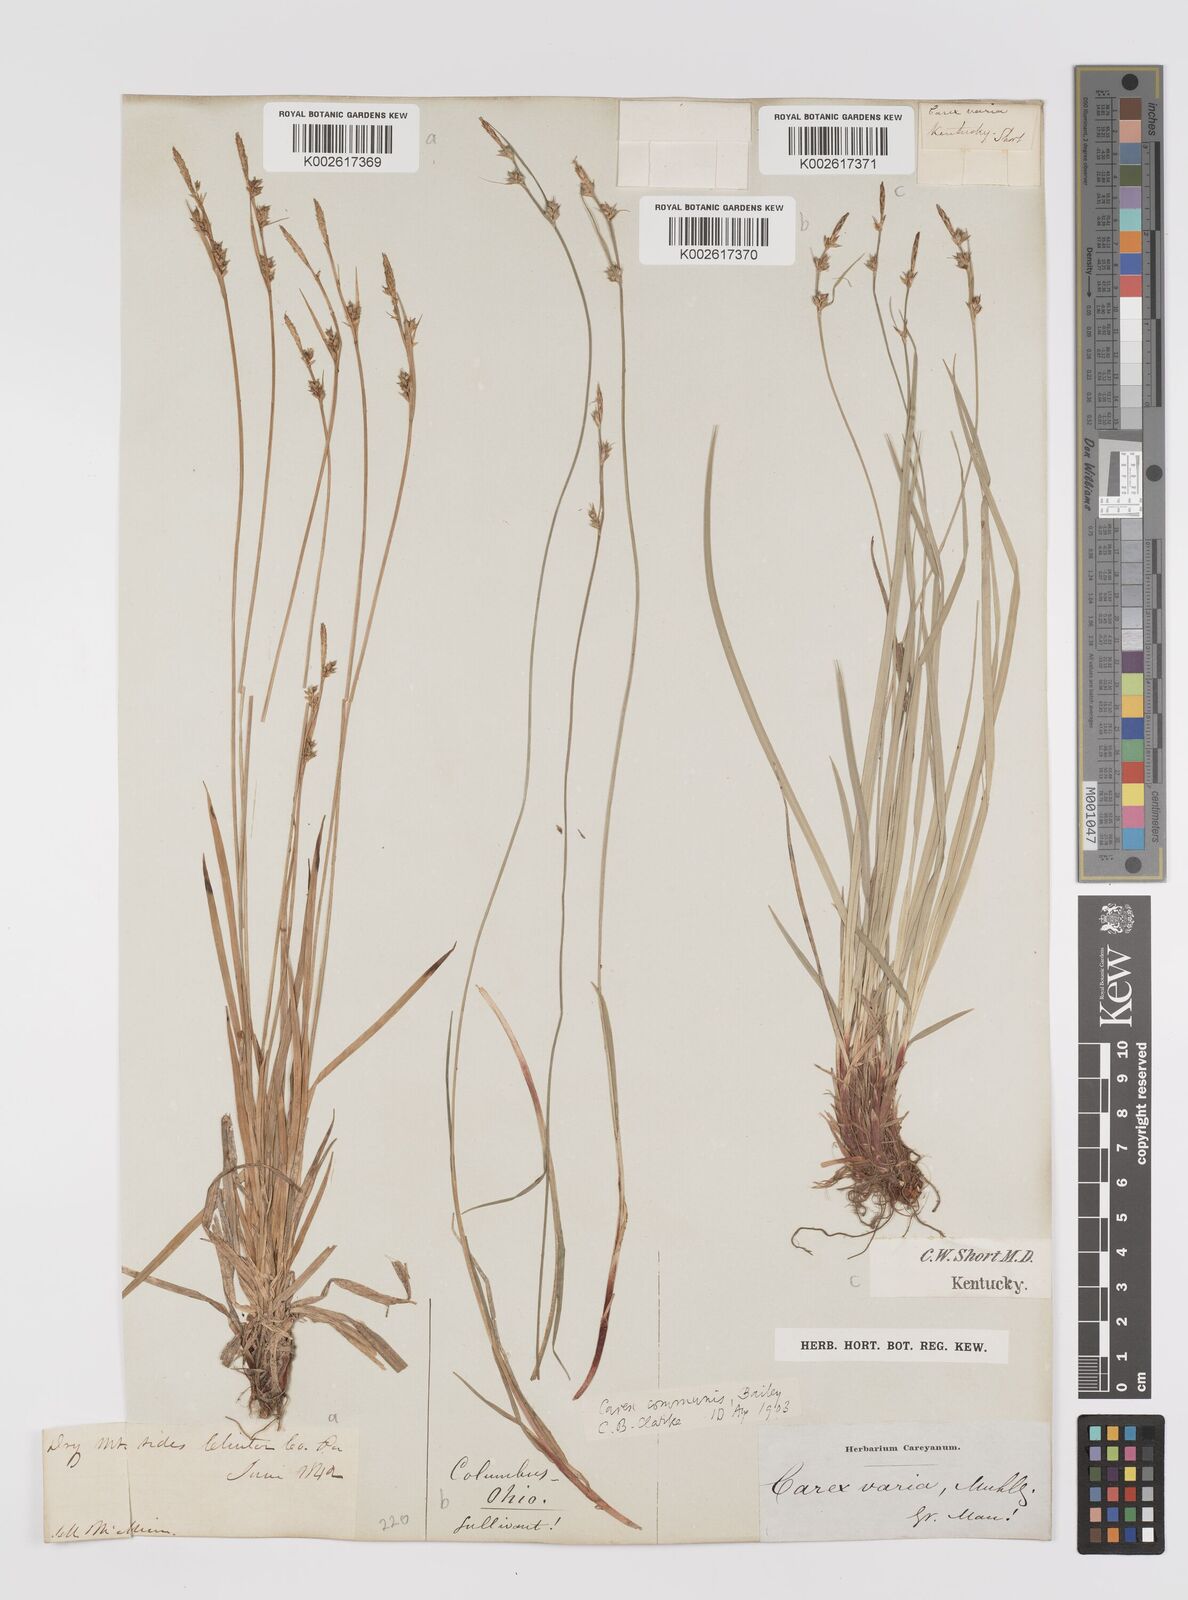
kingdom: Plantae
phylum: Tracheophyta
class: Liliopsida
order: Poales
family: Cyperaceae
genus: Carex
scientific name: Carex communis
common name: Colonial oak sedge
